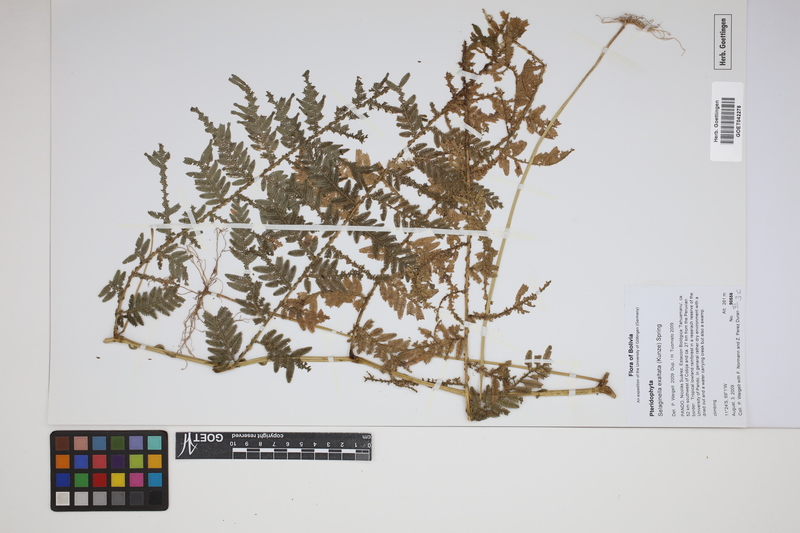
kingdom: Plantae
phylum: Tracheophyta
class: Lycopodiopsida
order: Selaginellales
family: Selaginellaceae
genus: Selaginella
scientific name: Selaginella exaltata
